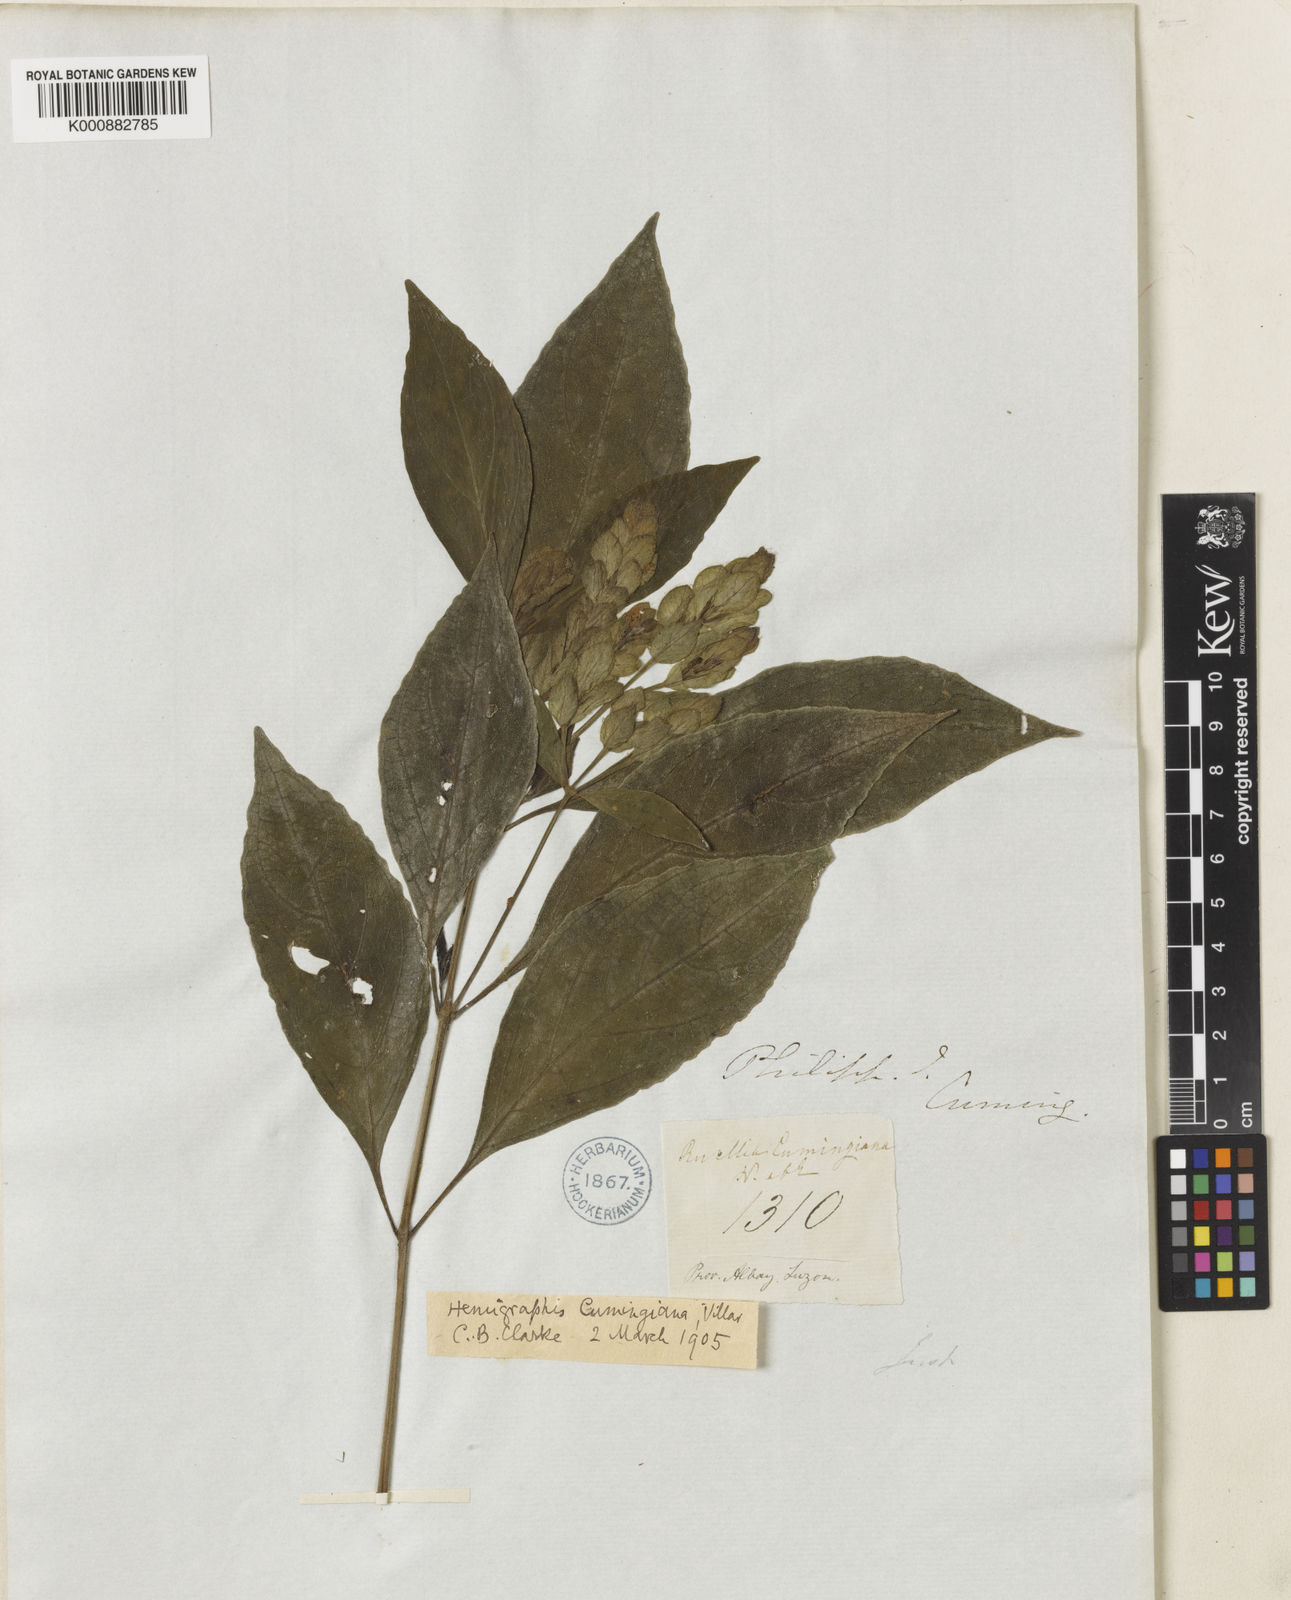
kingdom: Plantae
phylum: Tracheophyta
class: Magnoliopsida
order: Lamiales
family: Acanthaceae
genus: Strobilanthes
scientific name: Strobilanthes cumingiana
